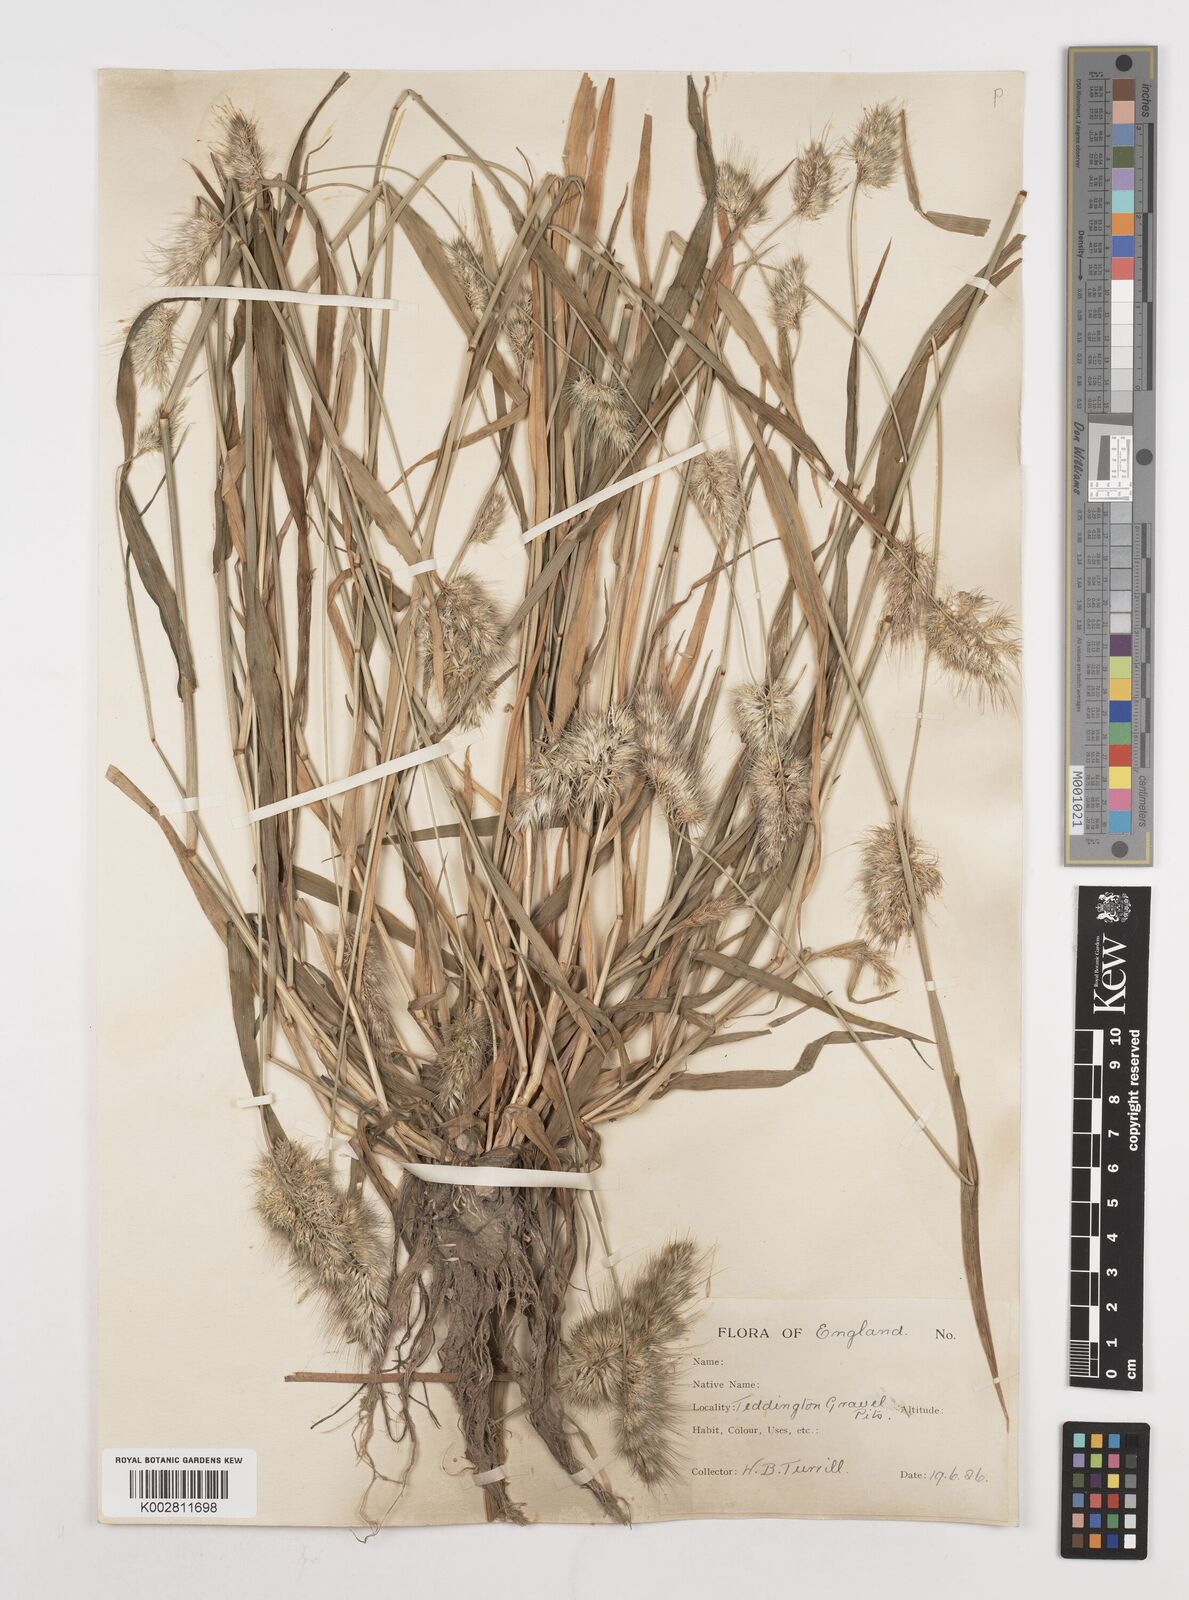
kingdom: Plantae
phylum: Tracheophyta
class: Liliopsida
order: Poales
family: Poaceae
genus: Cynosurus
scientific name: Cynosurus echinatus
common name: Rough dog's-tail
